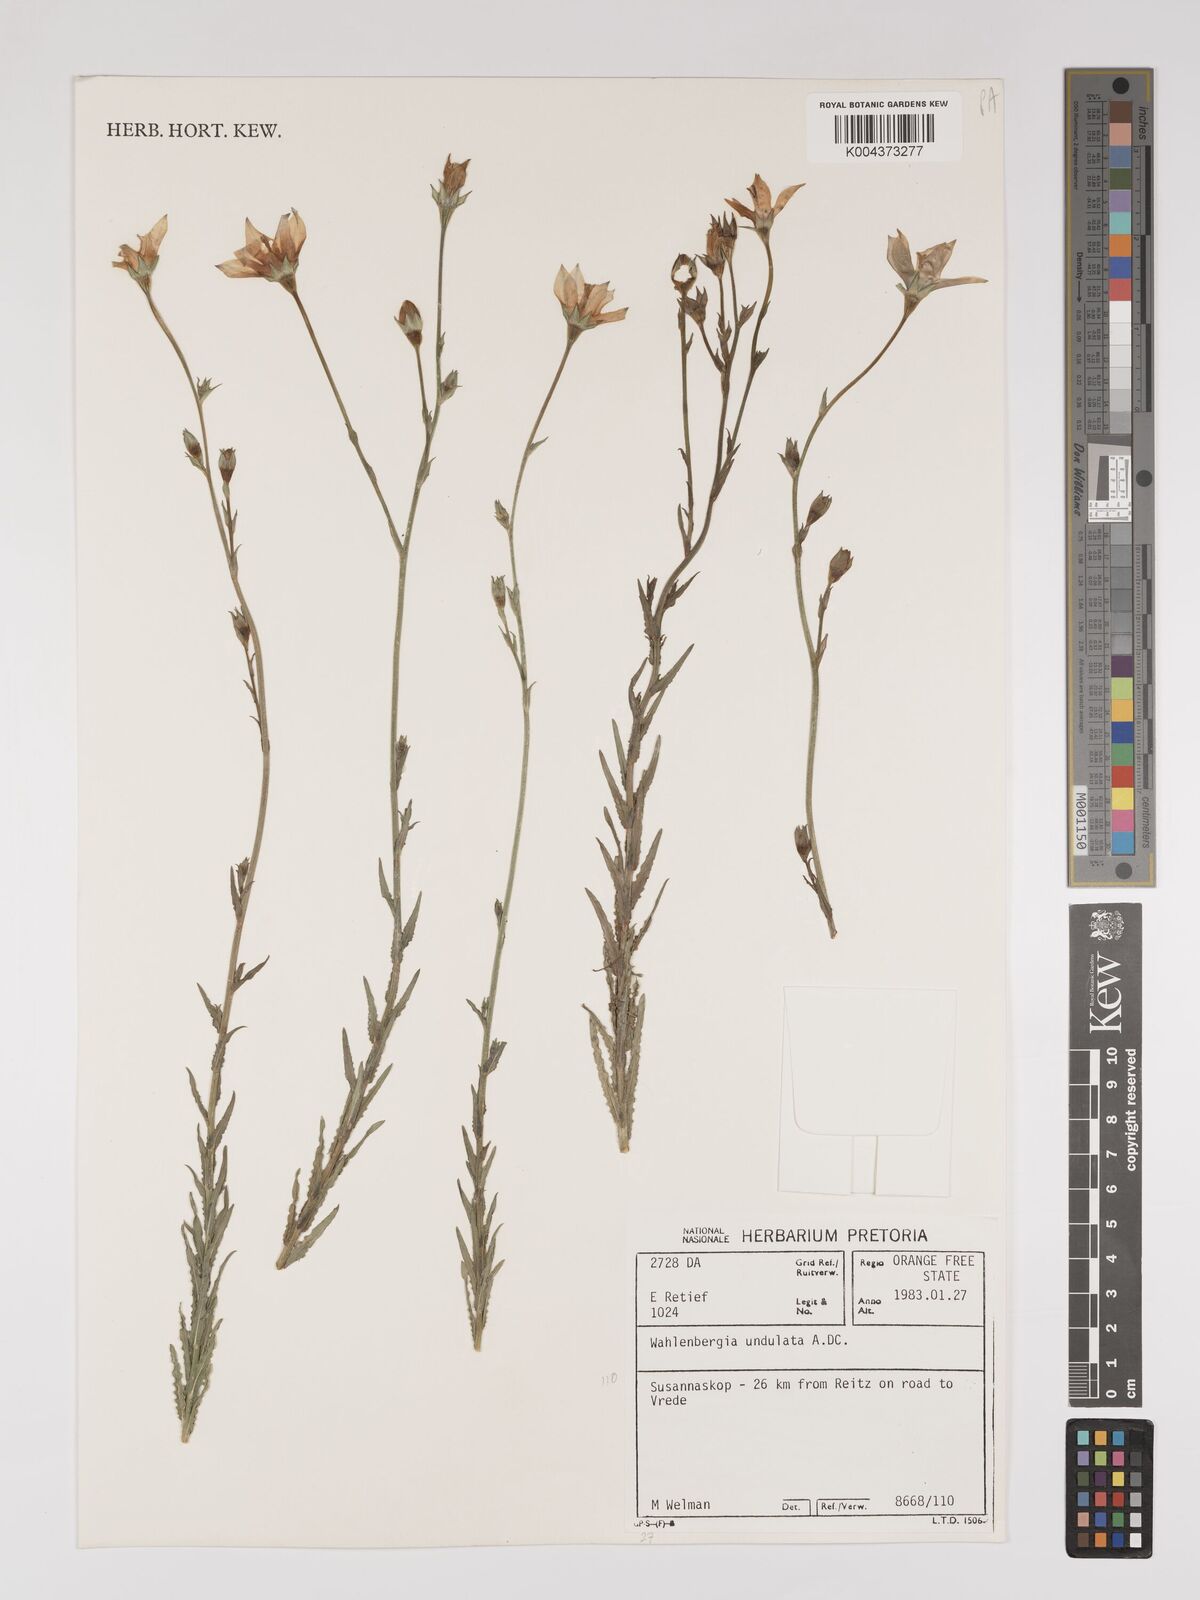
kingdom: Plantae
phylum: Tracheophyta
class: Magnoliopsida
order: Asterales
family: Campanulaceae
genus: Wahlenbergia
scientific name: Wahlenbergia undulata
